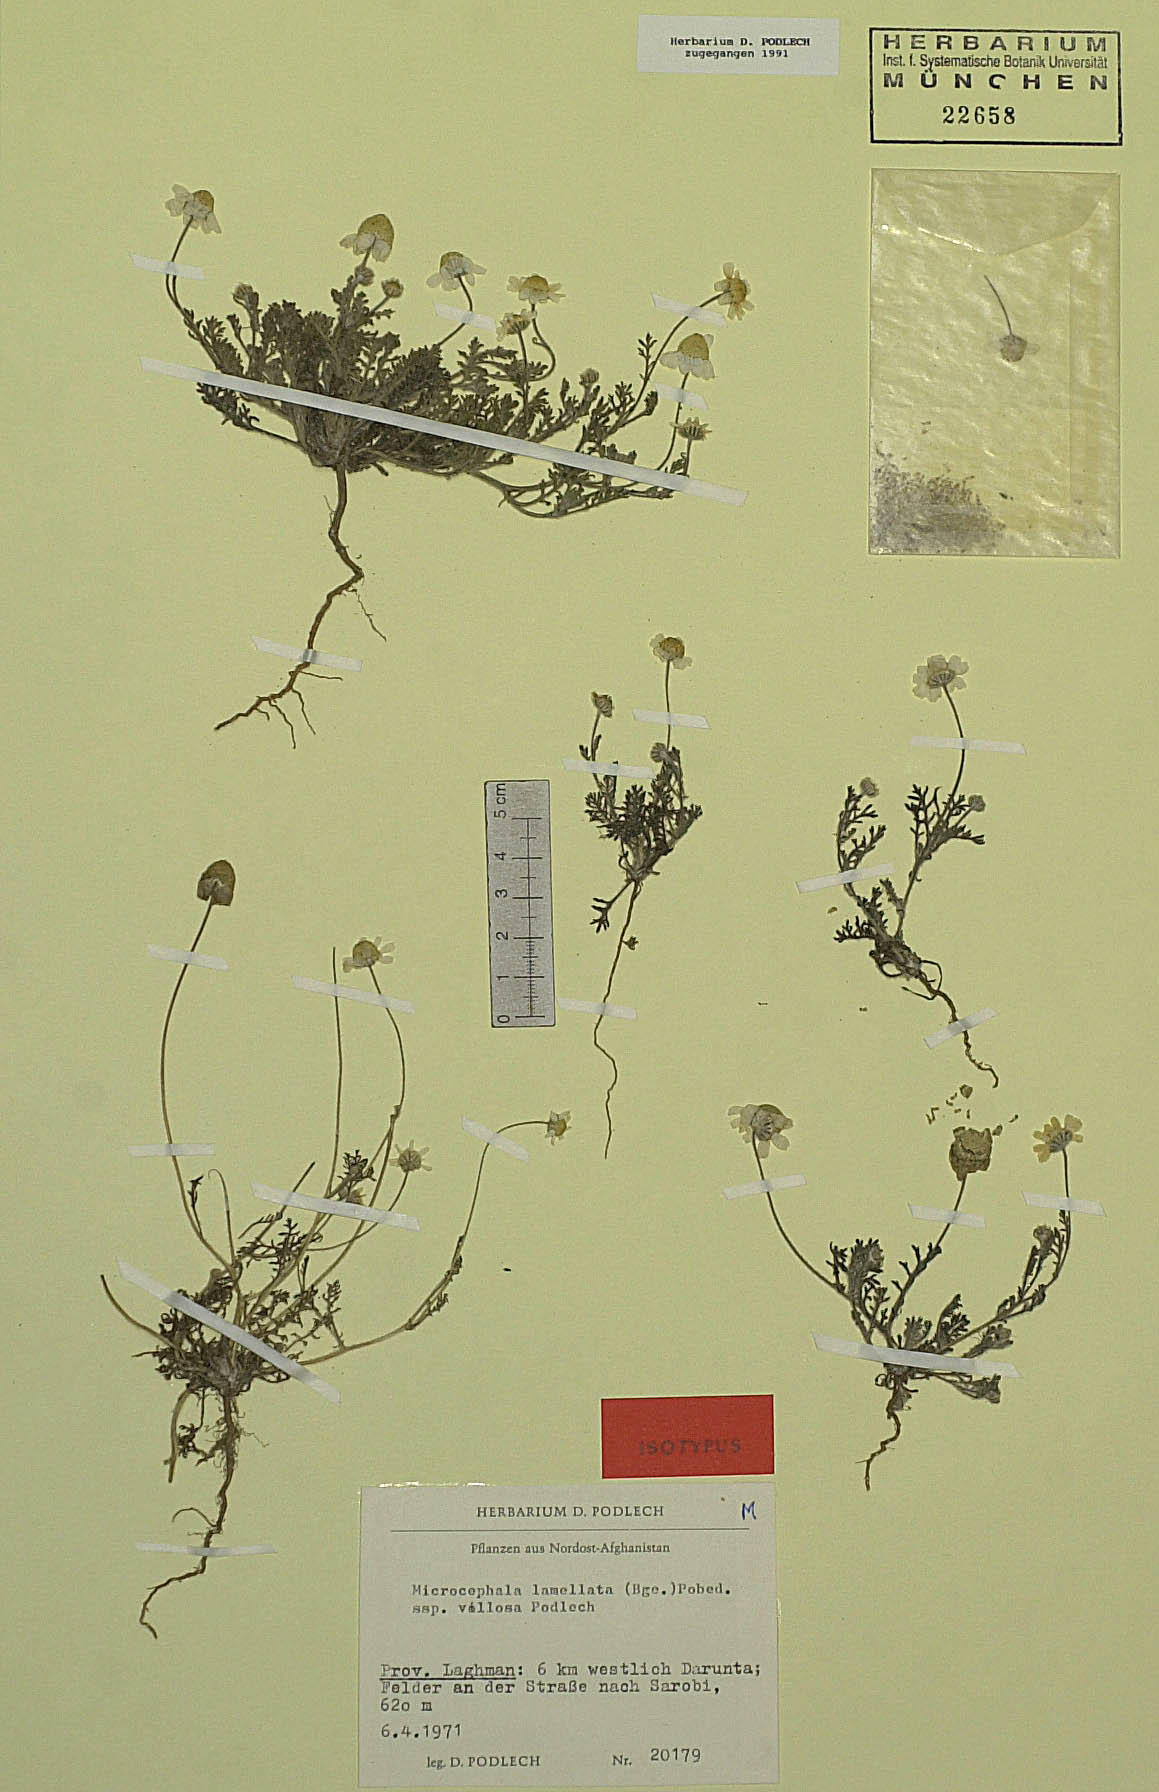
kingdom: Plantae
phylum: Tracheophyta
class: Magnoliopsida
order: Asterales
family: Asteraceae
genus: Microcephala
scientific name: Microcephala lamellata
